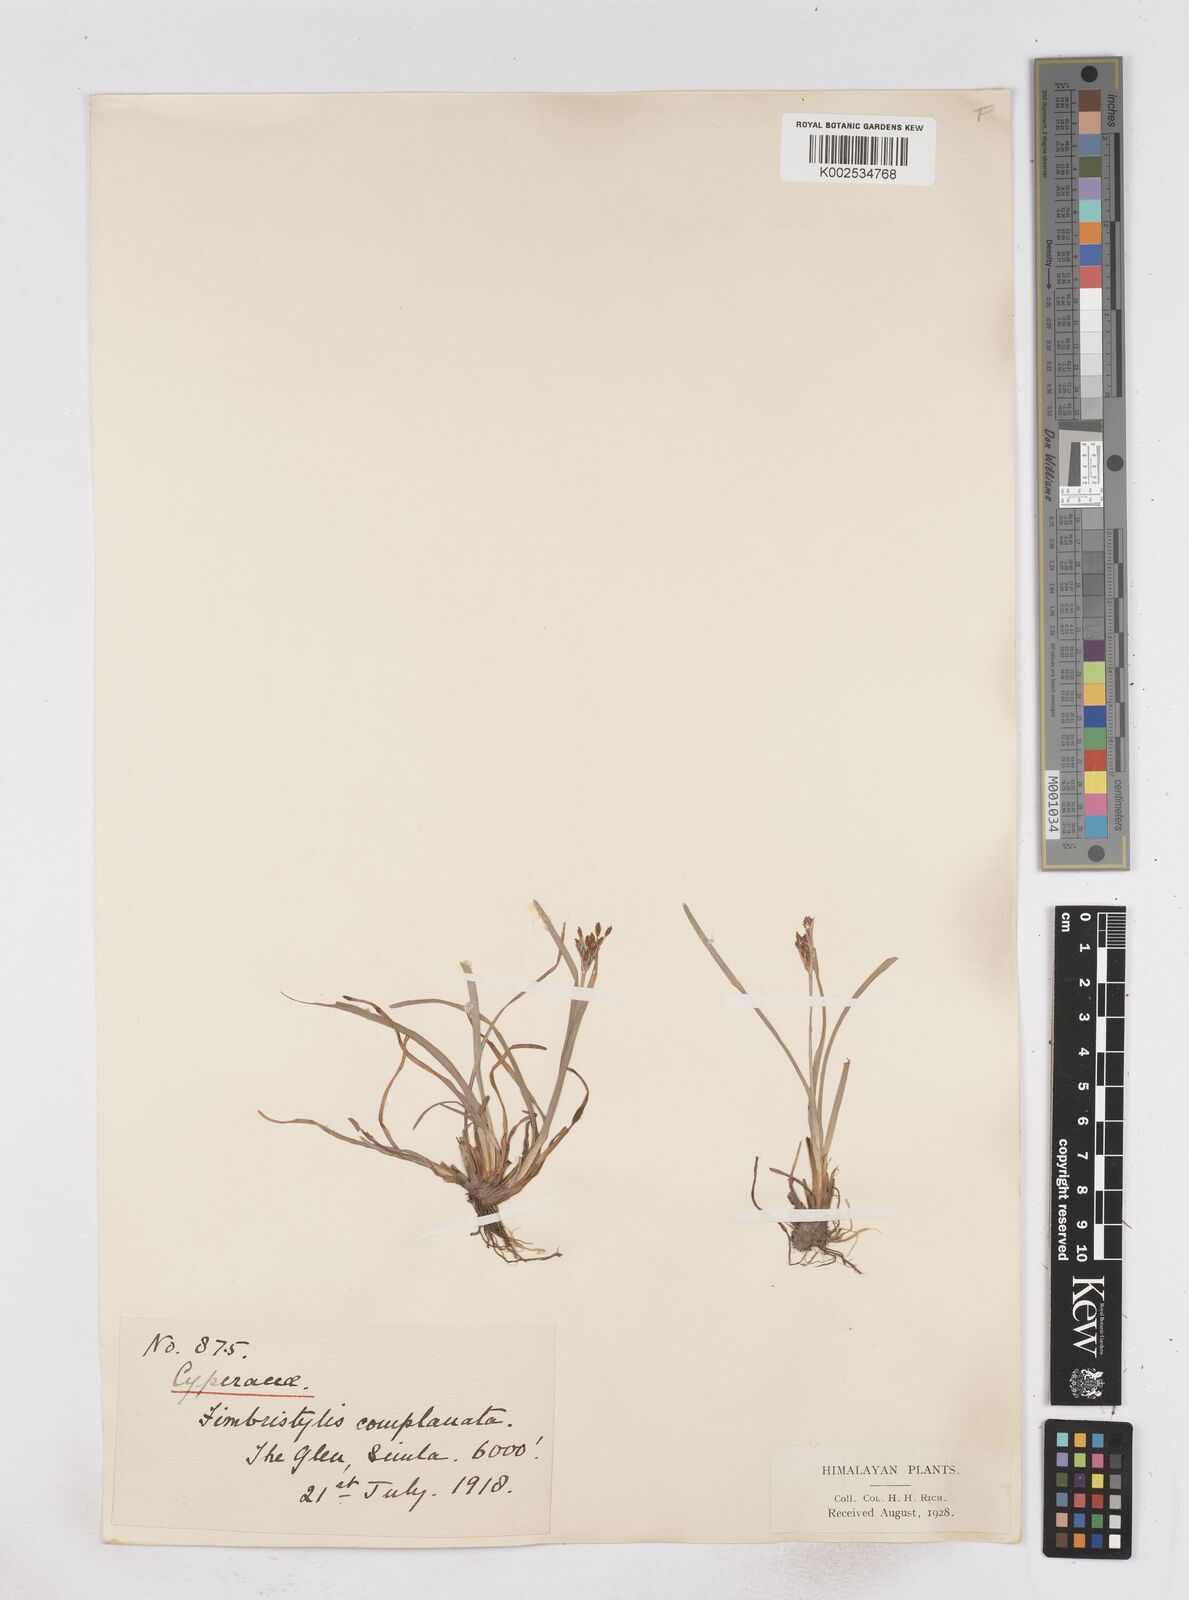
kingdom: Plantae
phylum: Tracheophyta
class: Liliopsida
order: Poales
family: Cyperaceae
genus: Fimbristylis
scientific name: Fimbristylis complanata
